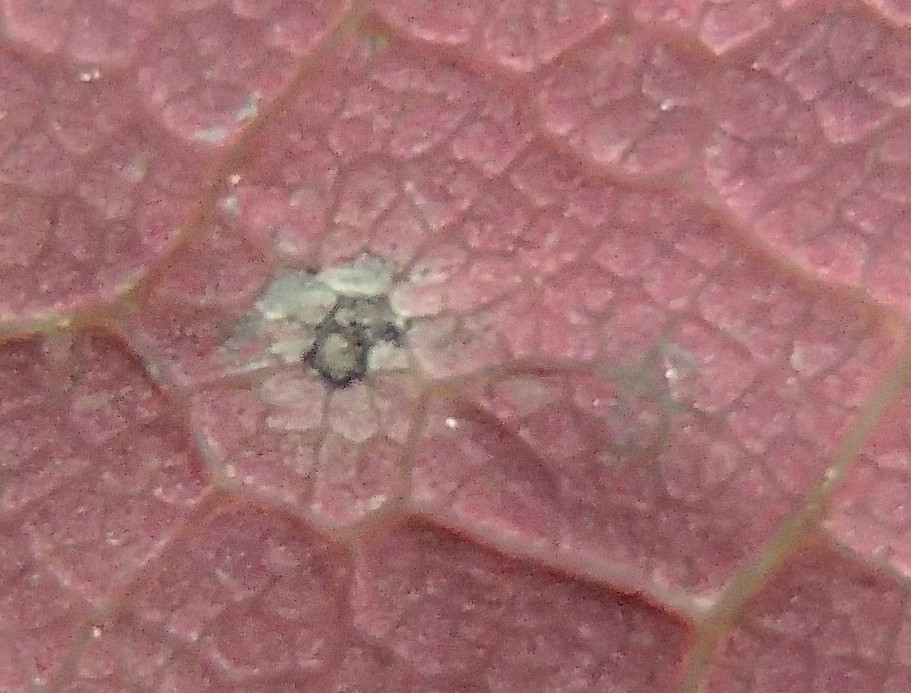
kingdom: Fungi
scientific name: Fungi
